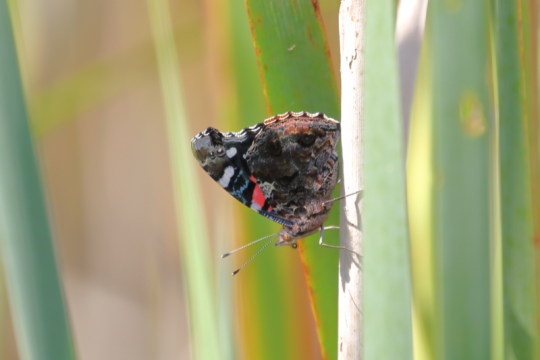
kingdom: Animalia
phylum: Arthropoda
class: Insecta
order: Lepidoptera
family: Nymphalidae
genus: Vanessa
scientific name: Vanessa atalanta
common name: Red Admiral
